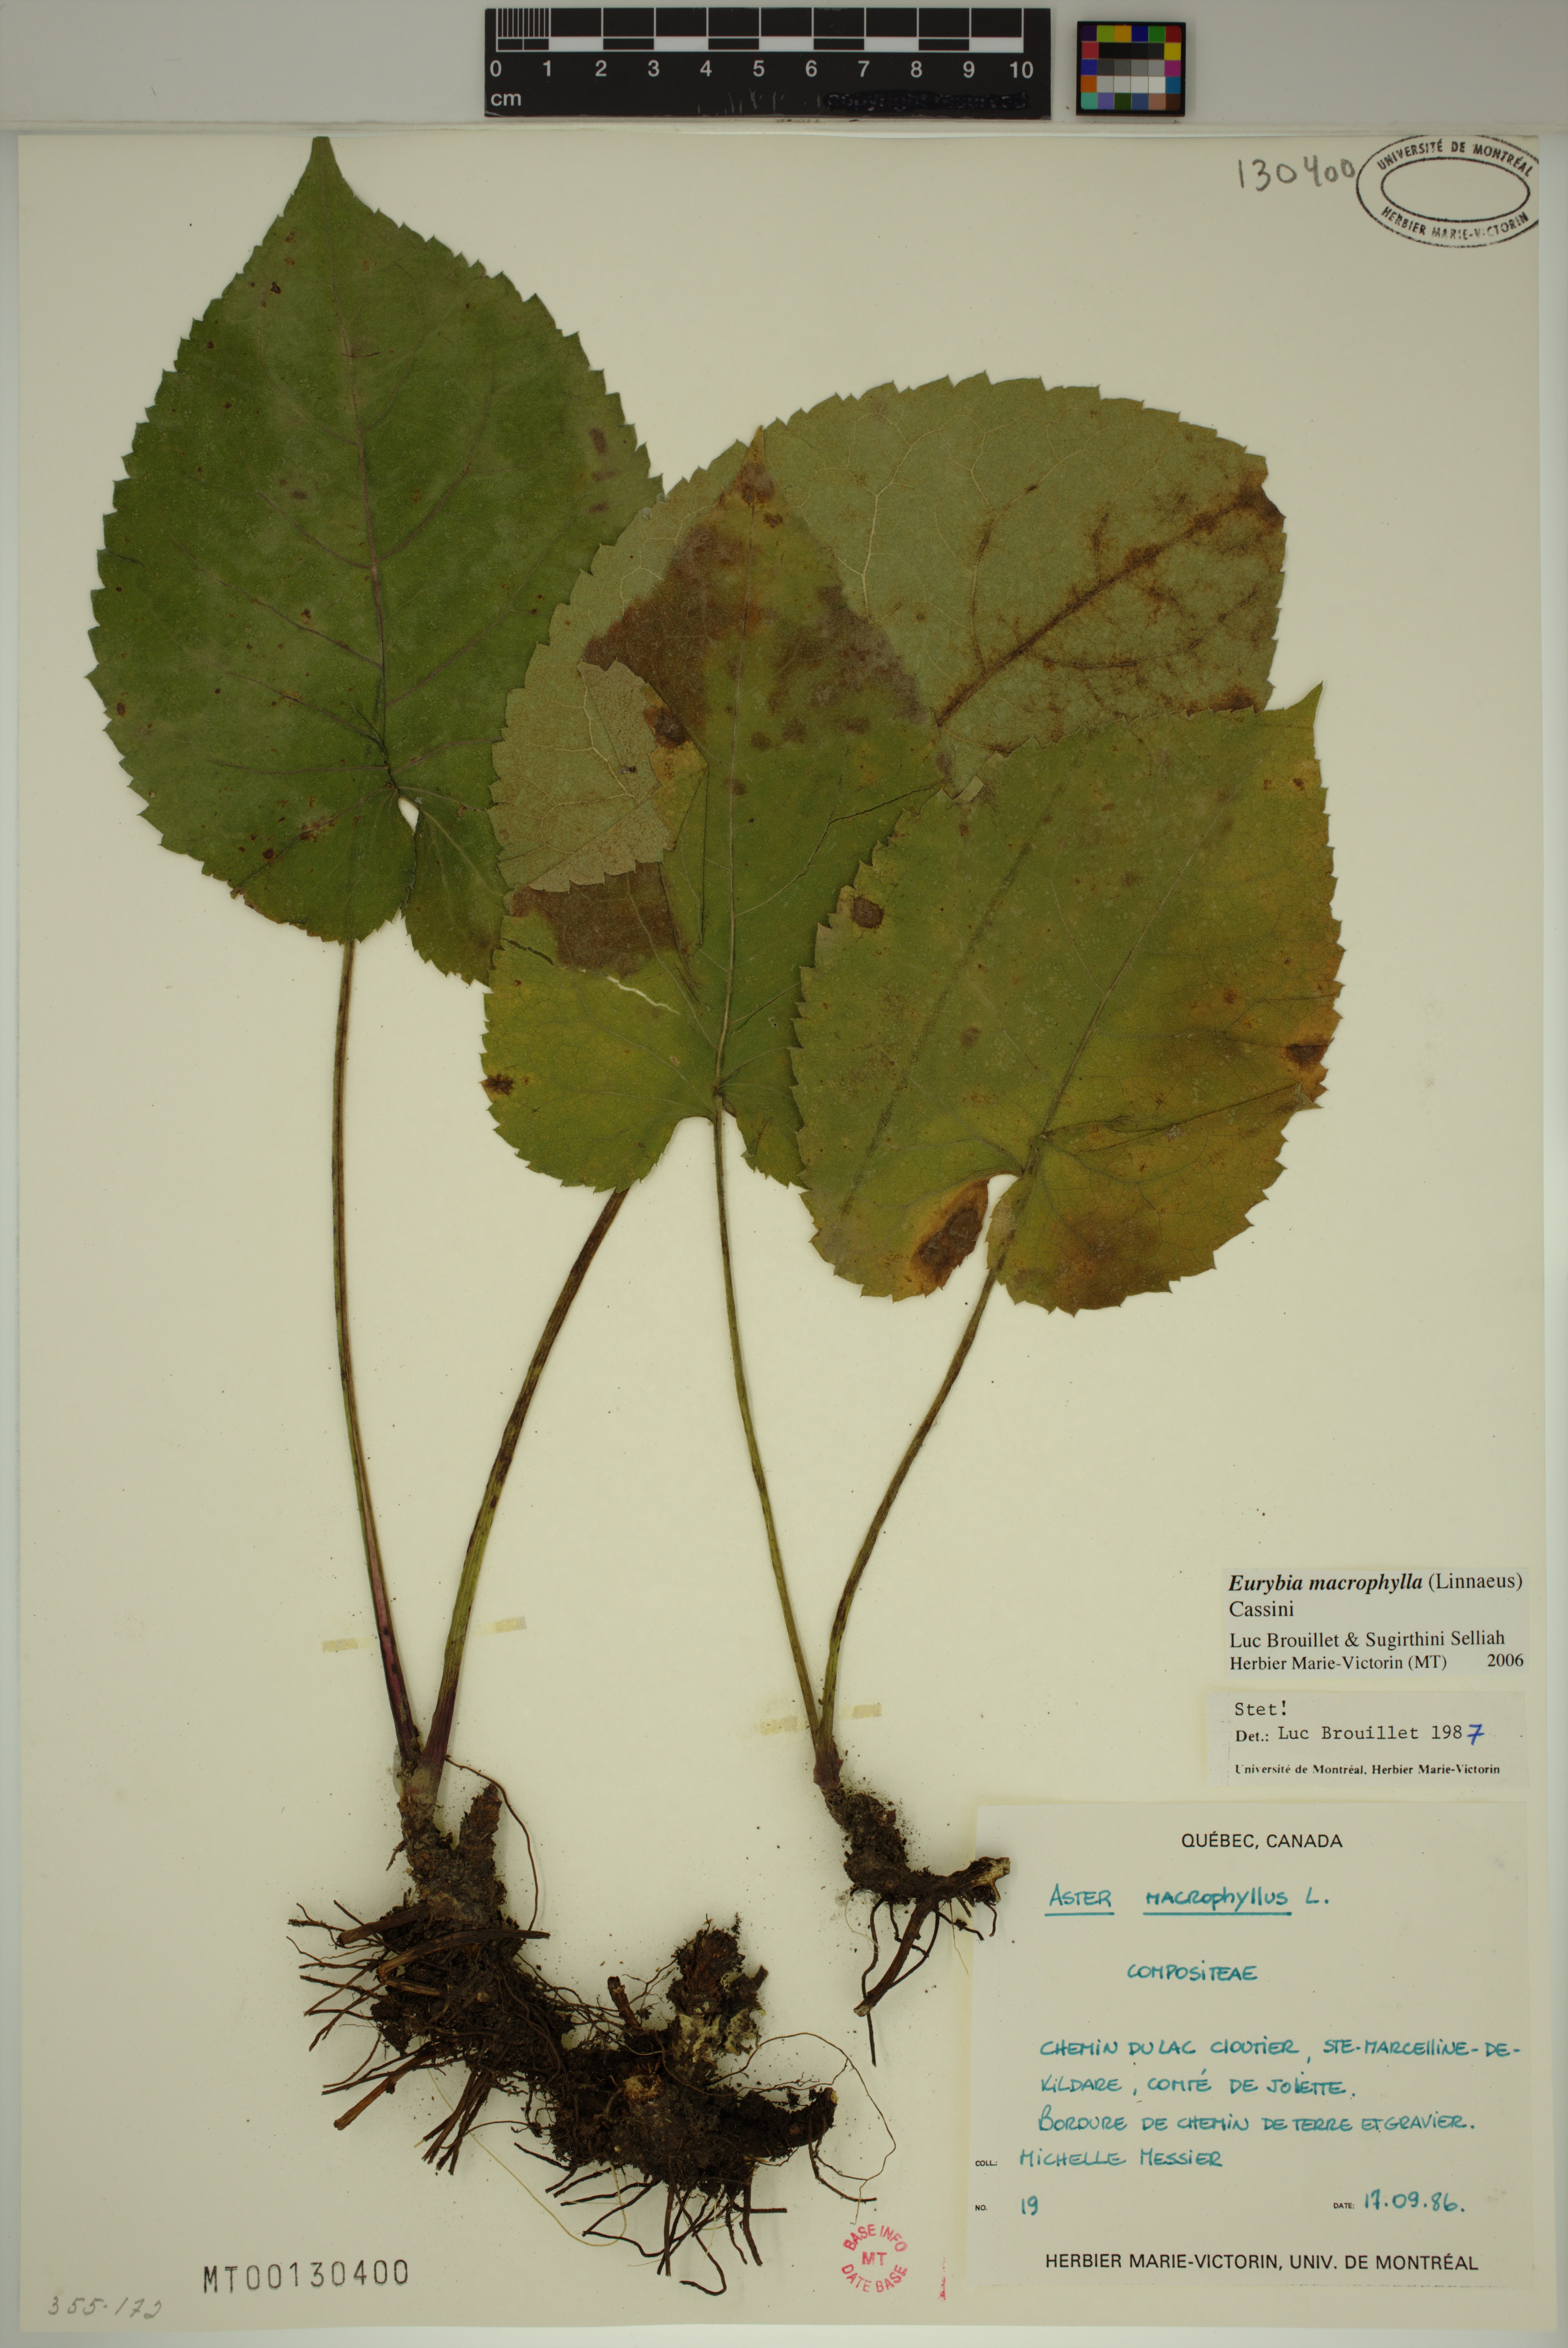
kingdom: Plantae
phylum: Tracheophyta
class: Magnoliopsida
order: Asterales
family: Asteraceae
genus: Eurybia
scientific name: Eurybia macrophylla
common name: Big-leaved aster
